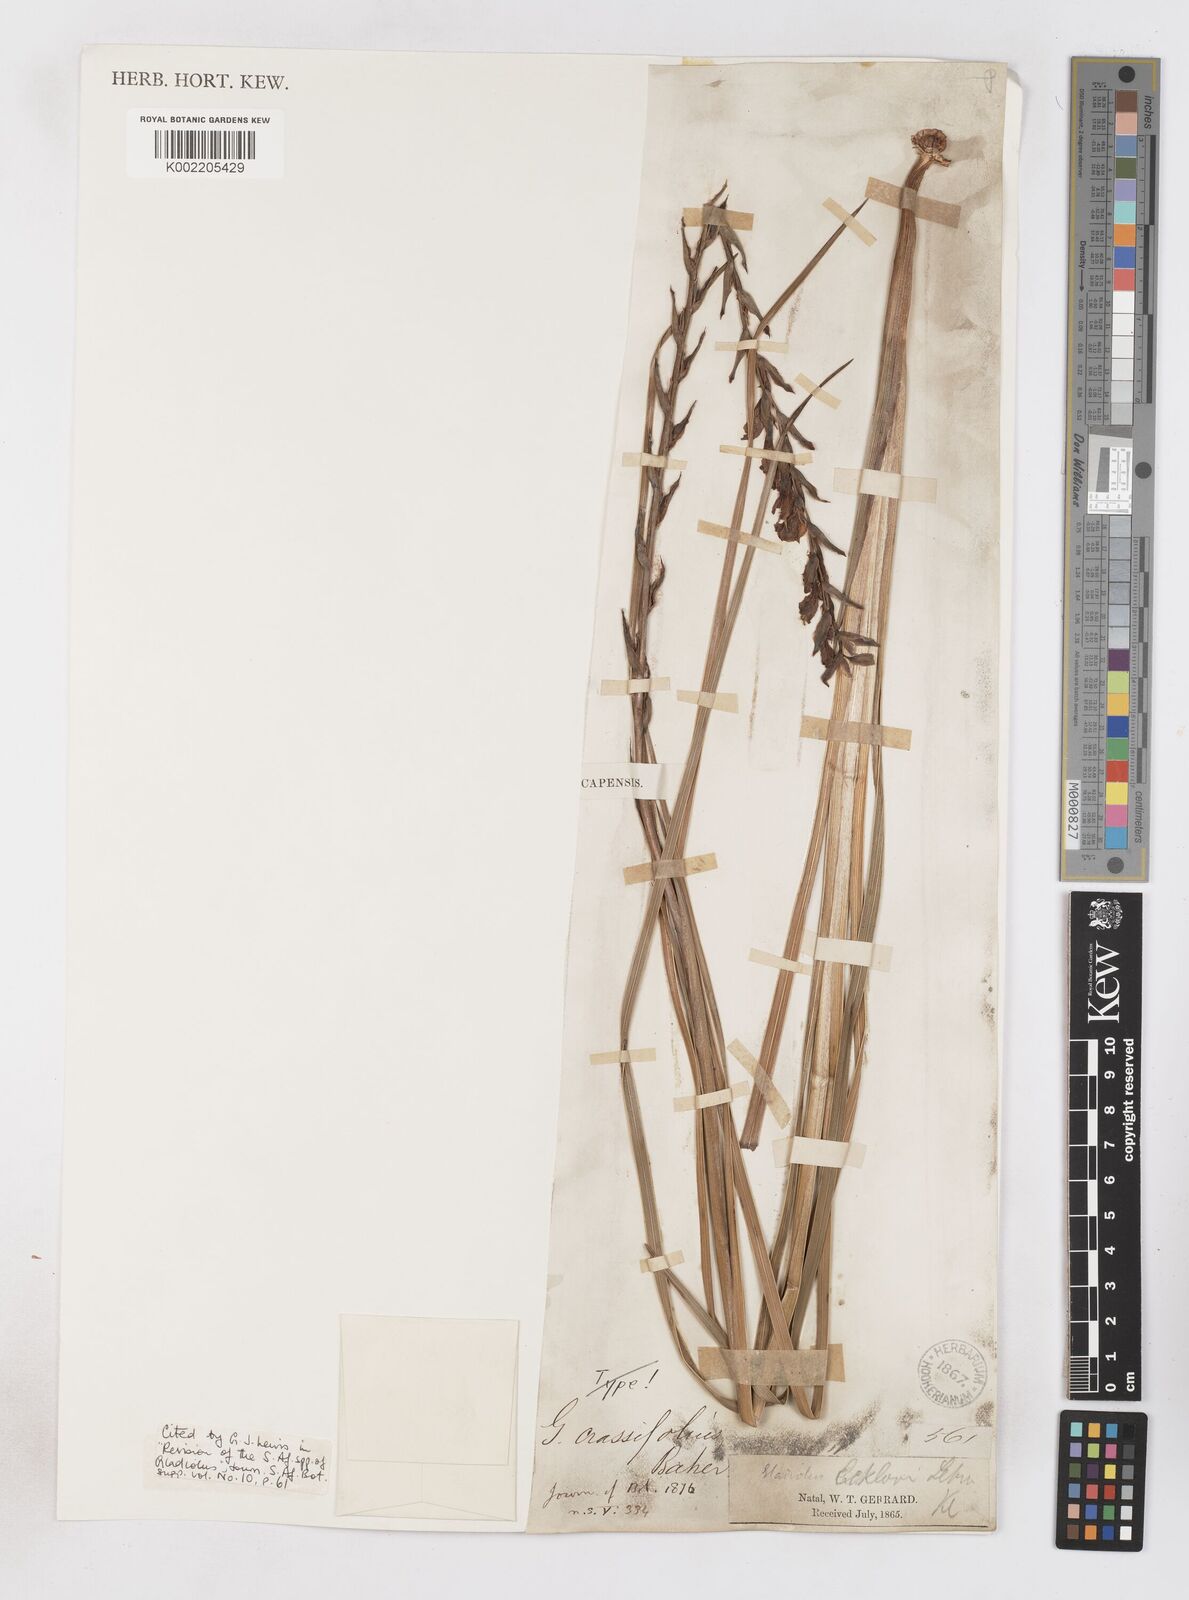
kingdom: Plantae
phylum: Tracheophyta
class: Liliopsida
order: Asparagales
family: Iridaceae
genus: Gladiolus
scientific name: Gladiolus densiflorus
